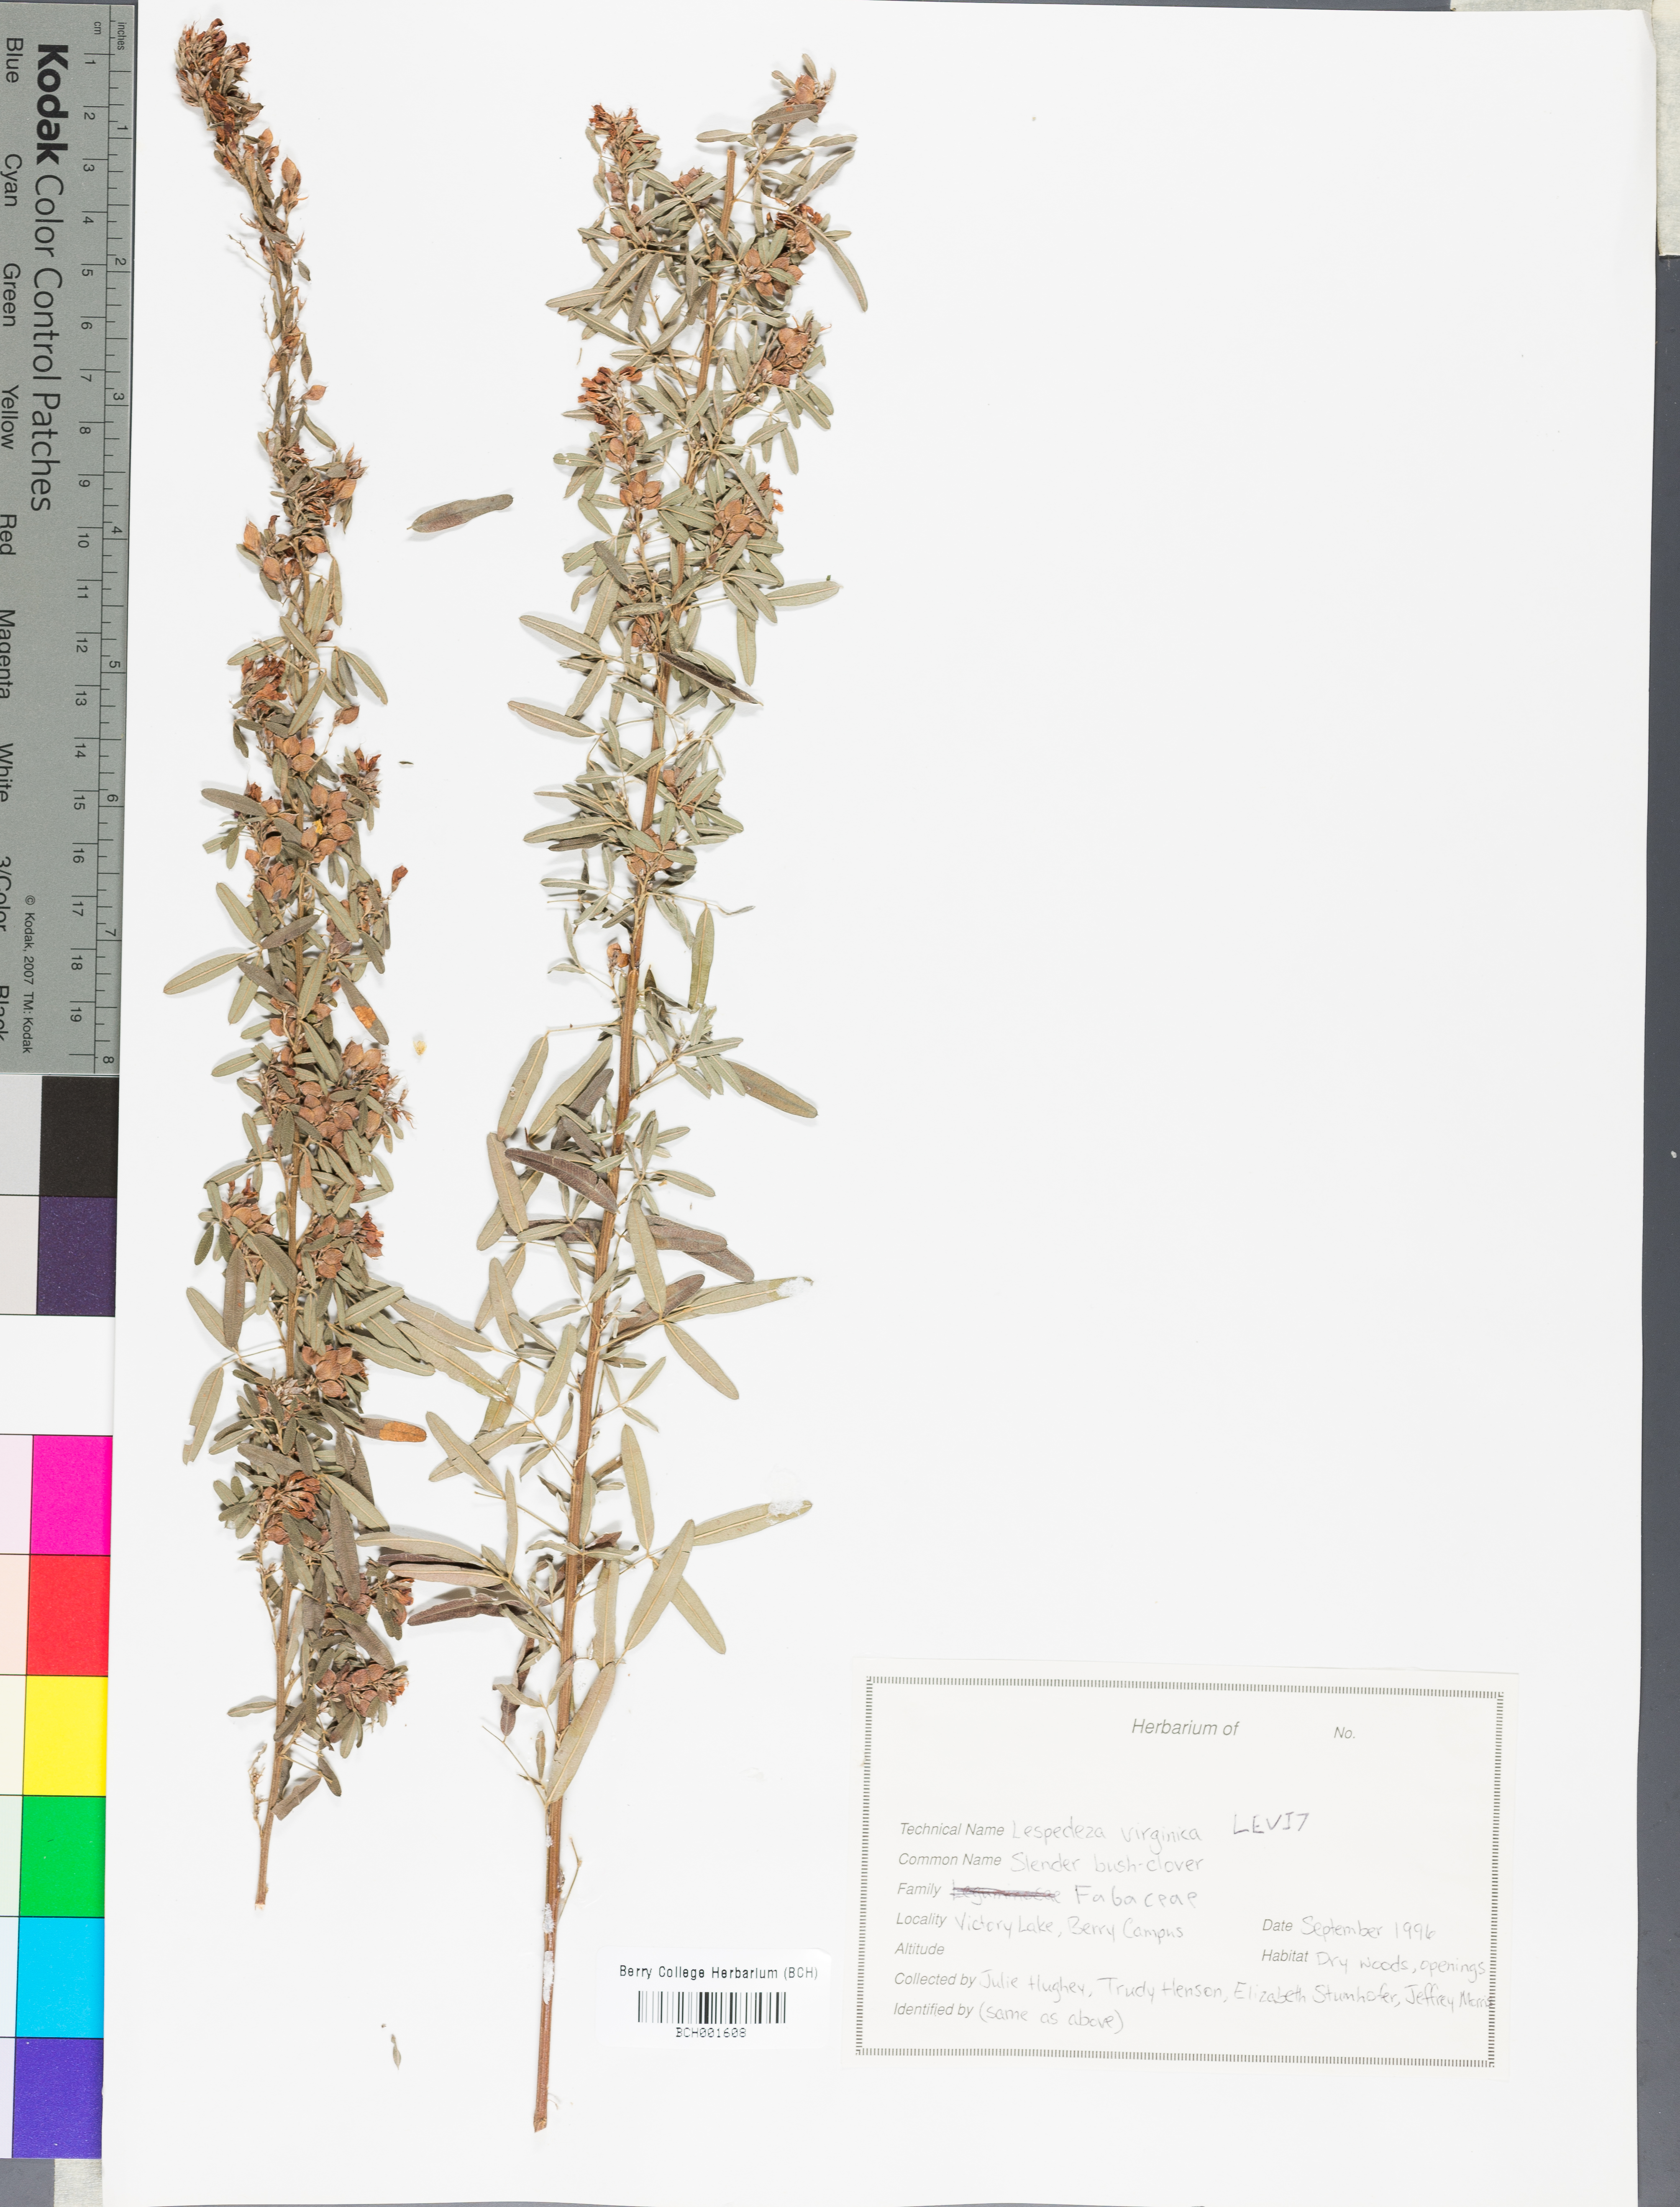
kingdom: Plantae
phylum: Tracheophyta
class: Magnoliopsida
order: Fabales
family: Fabaceae
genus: Lespedeza
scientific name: Lespedeza virginica
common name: Slender bush-clover
